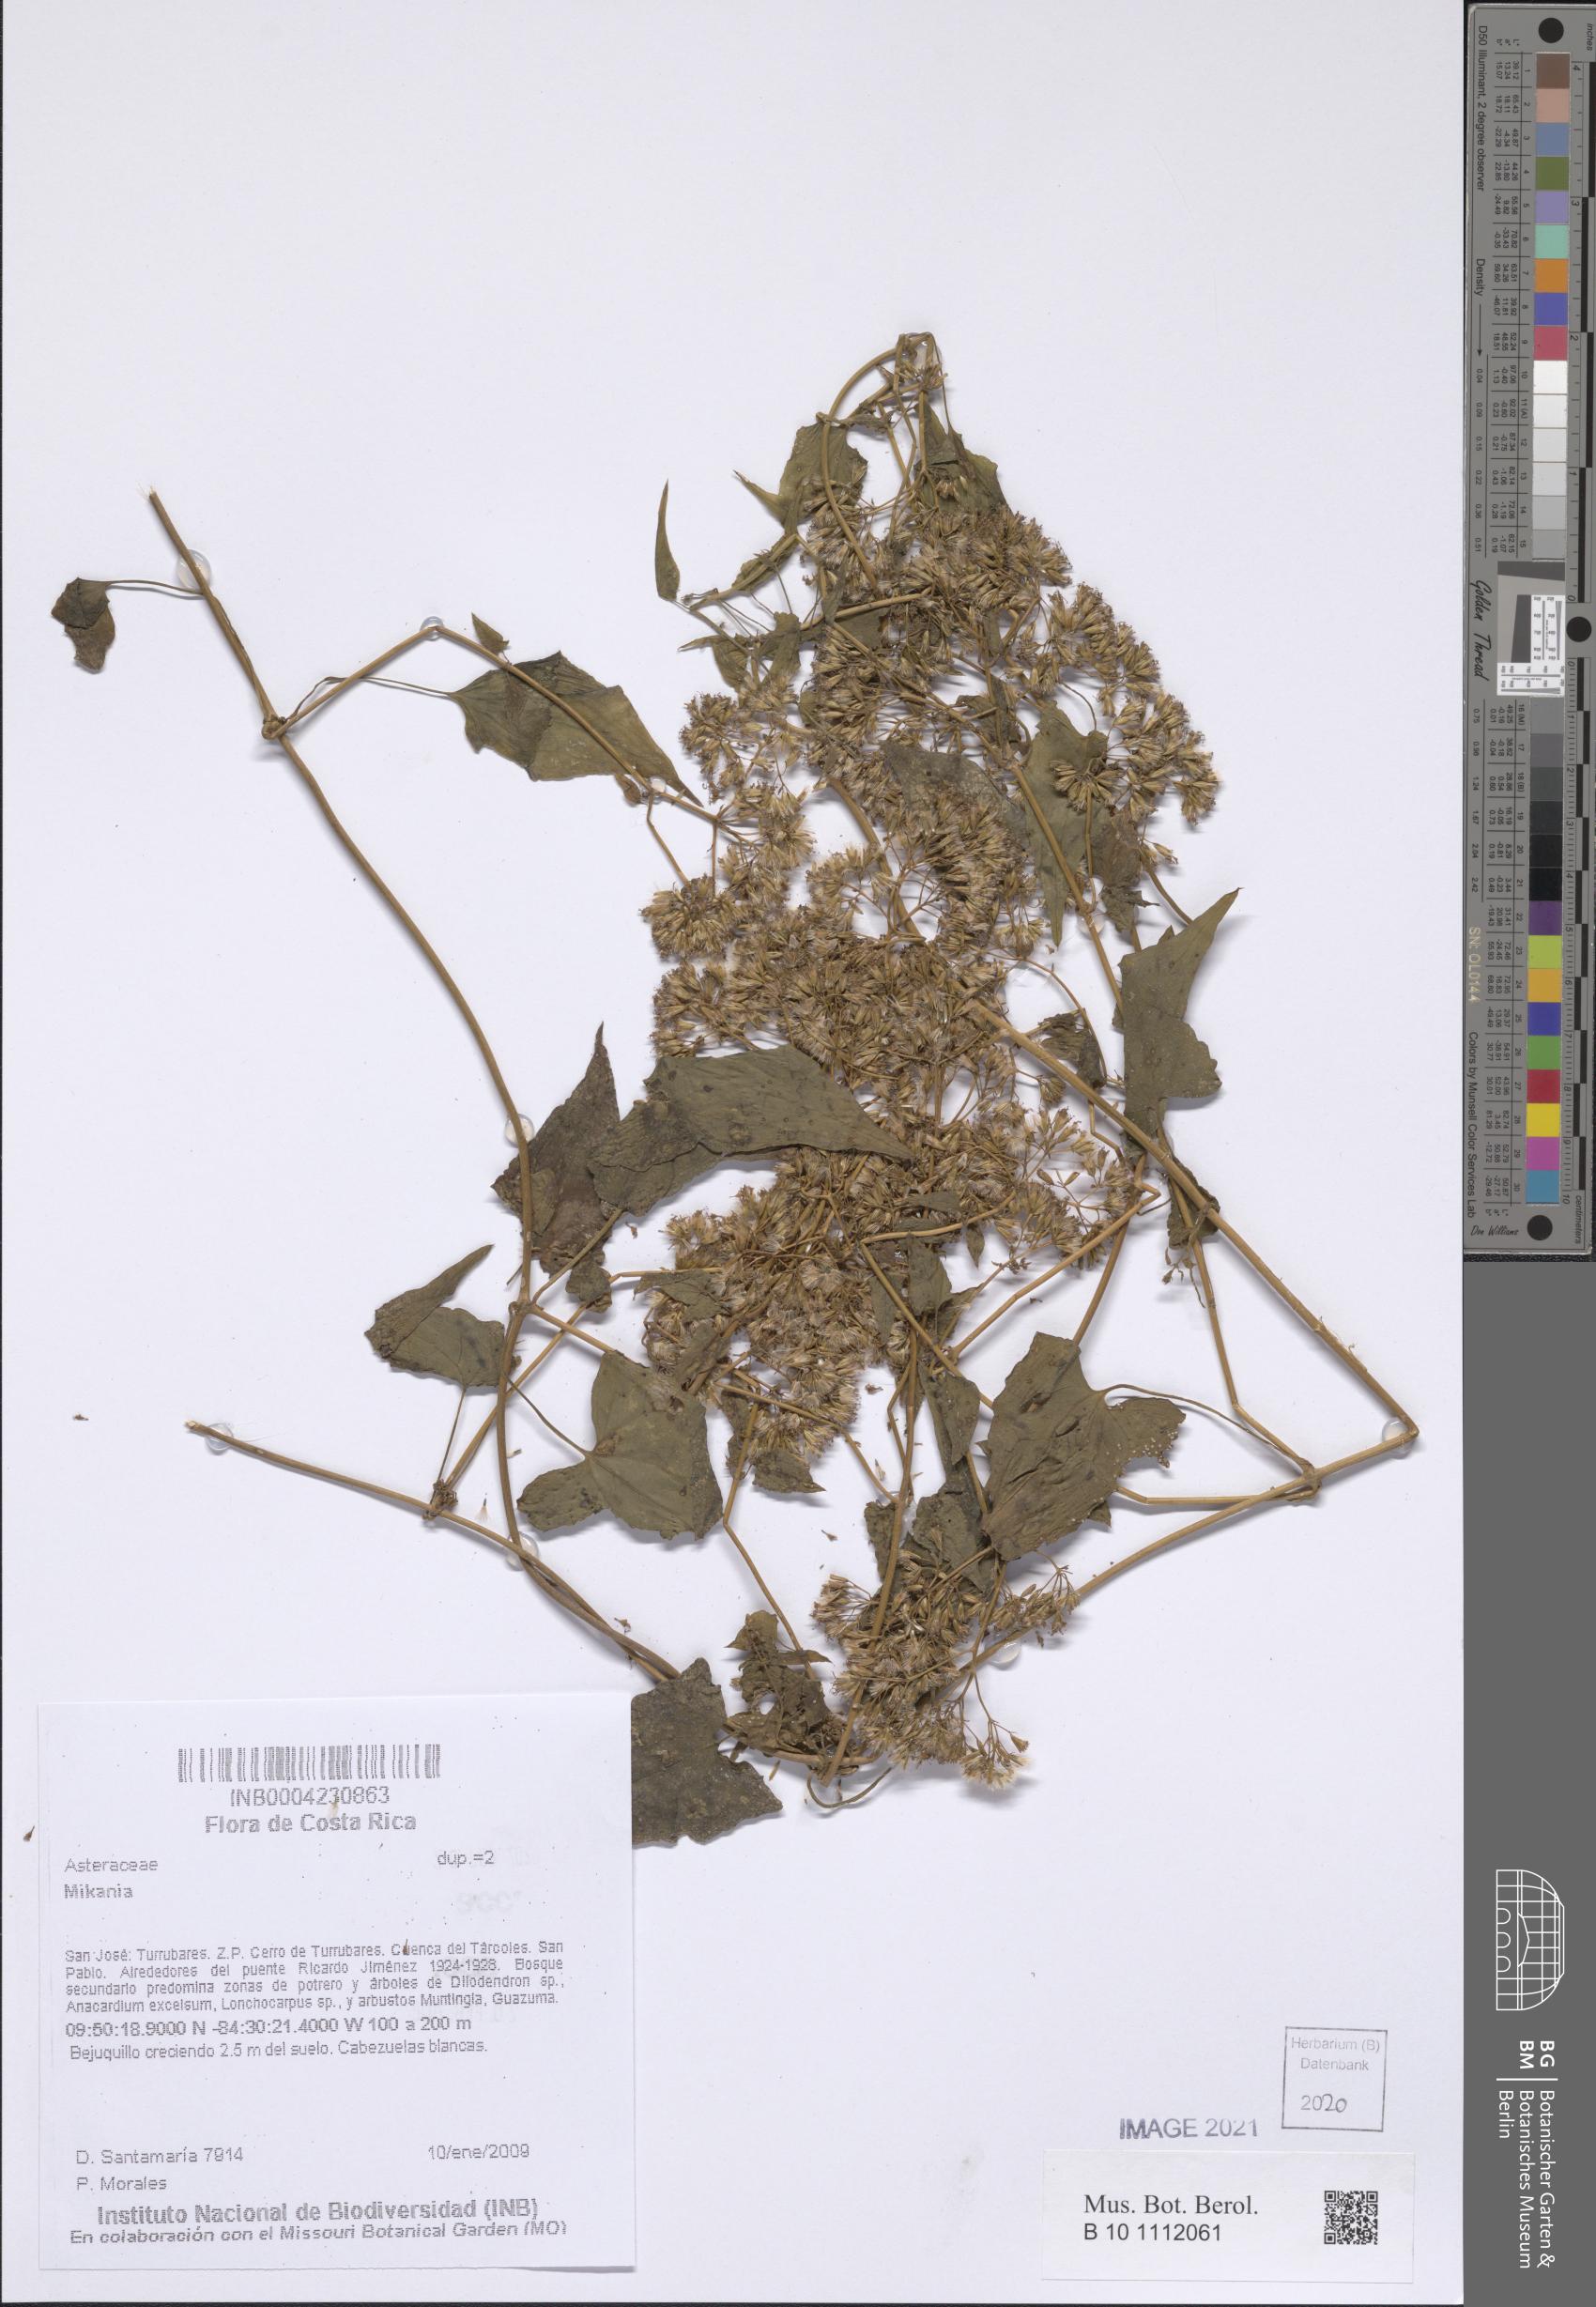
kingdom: Plantae
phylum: Tracheophyta
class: Magnoliopsida
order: Asterales
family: Asteraceae
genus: Mikania
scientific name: Mikania
